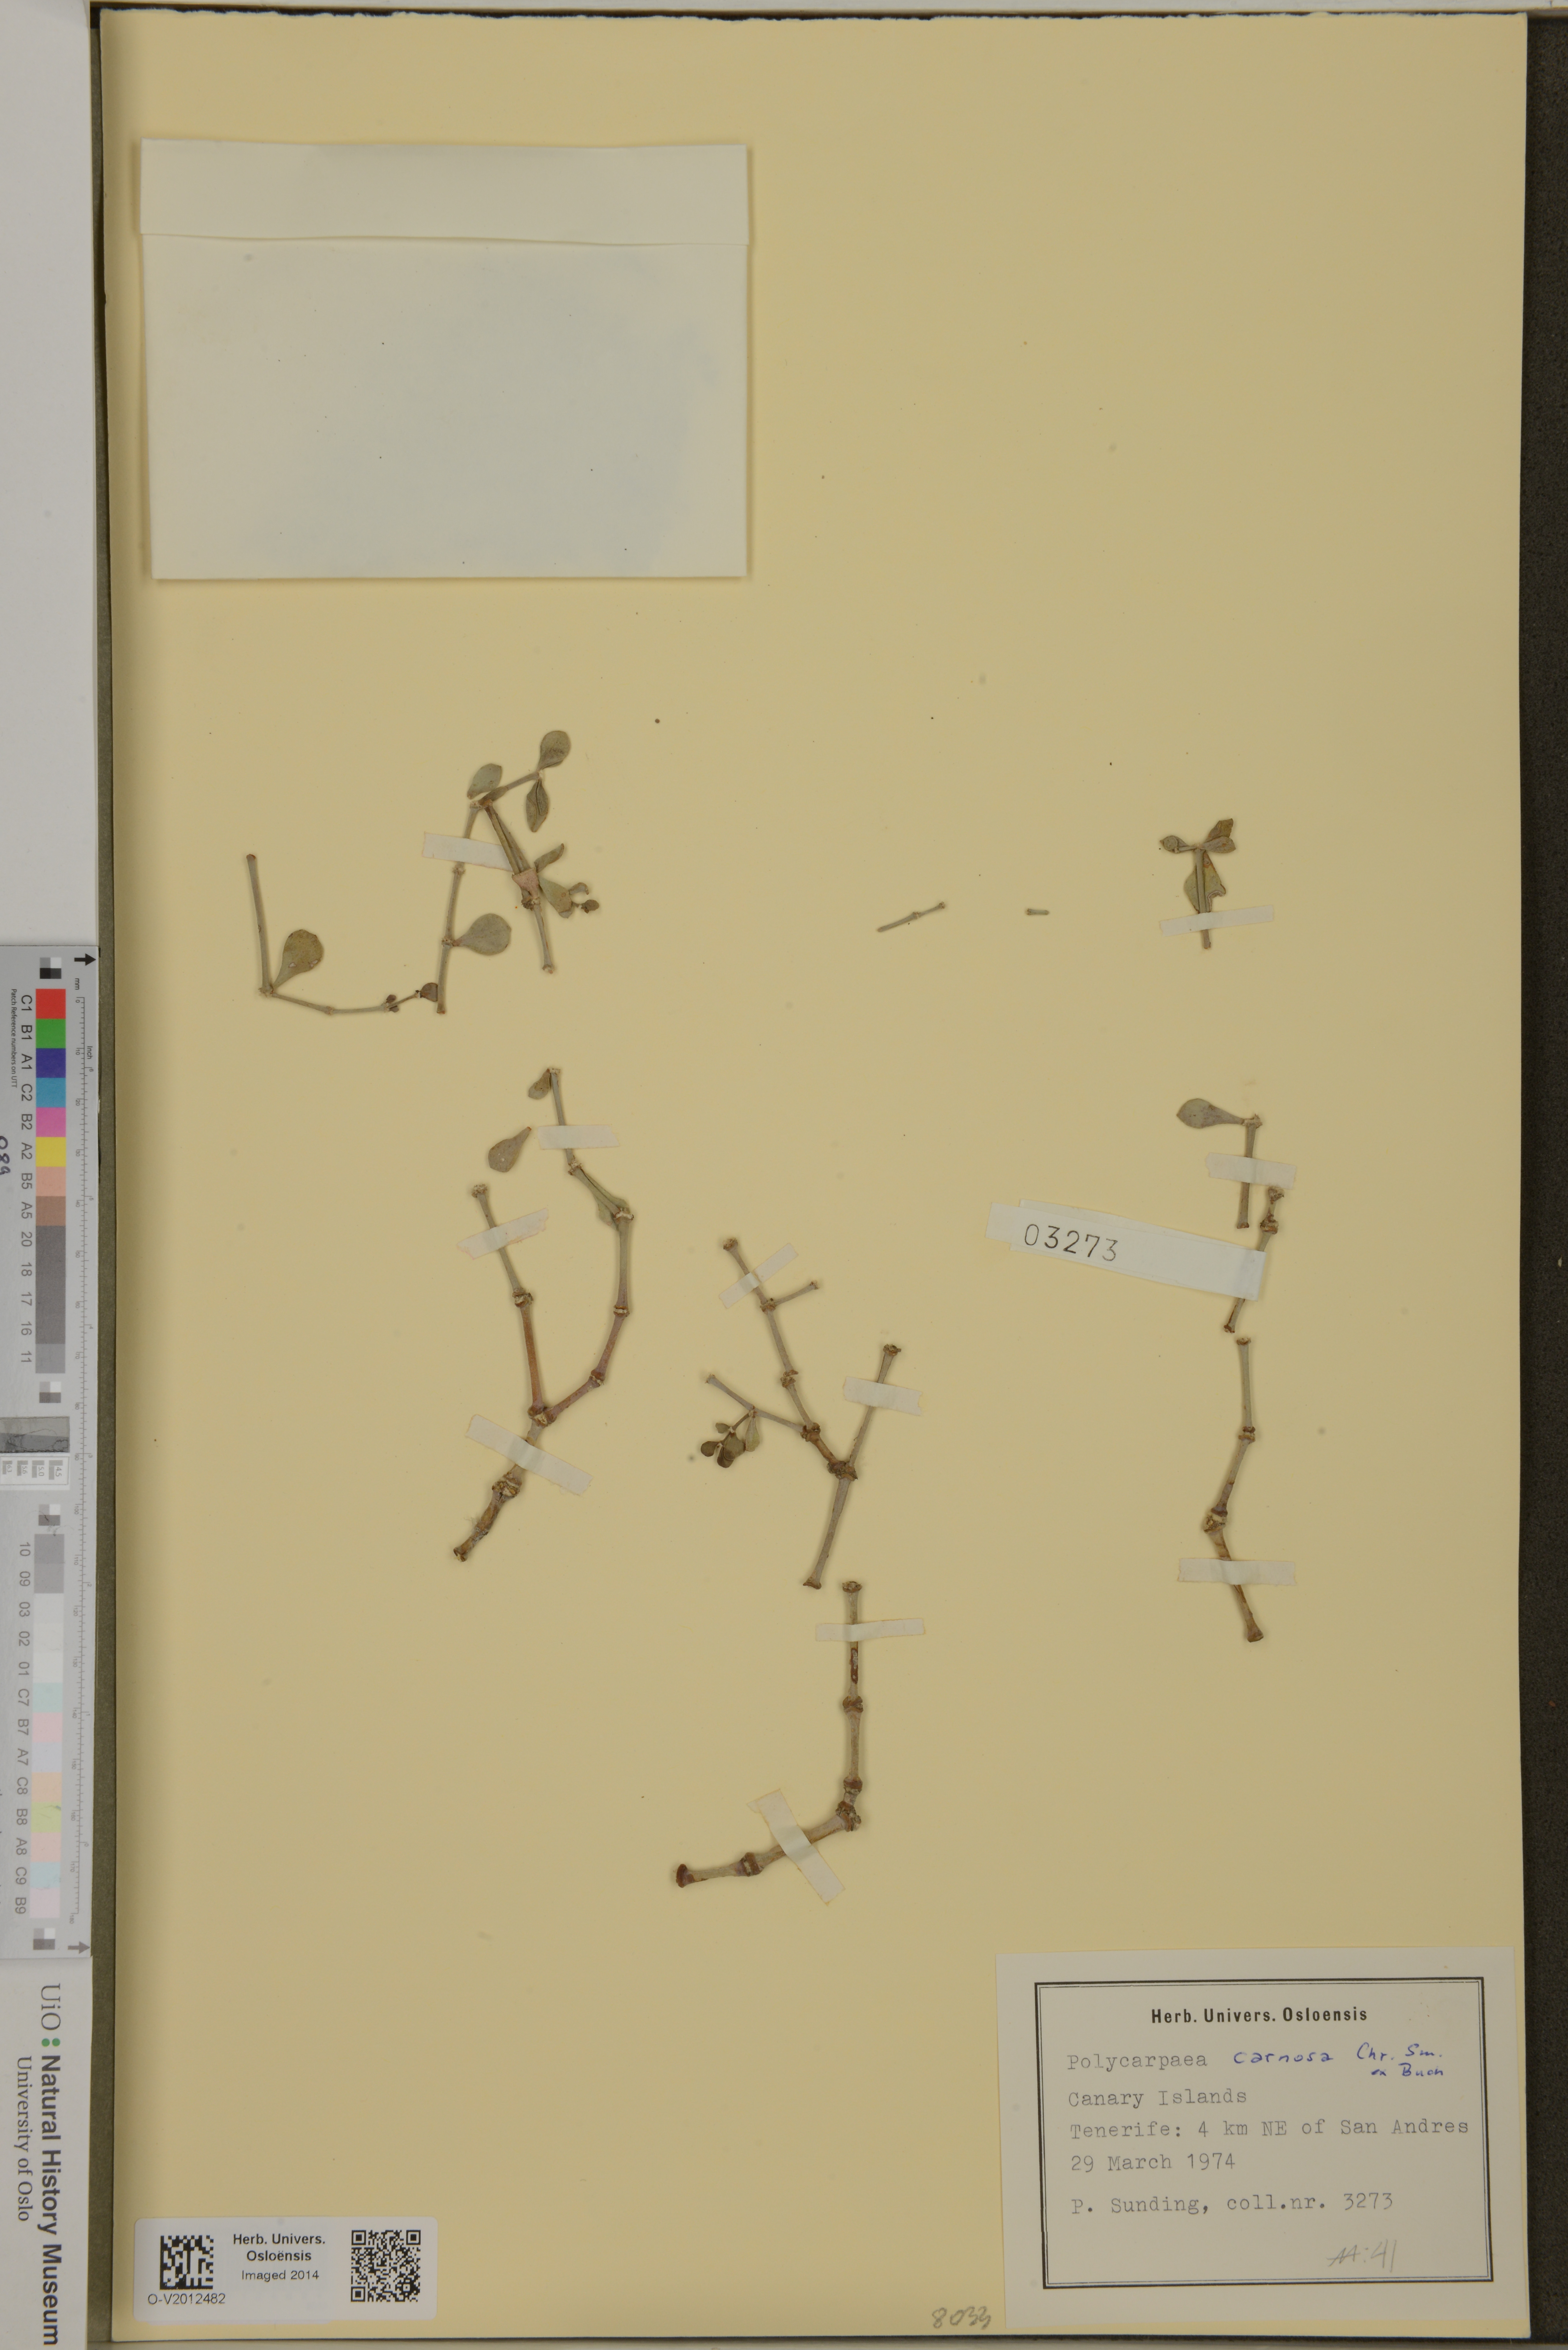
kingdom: Plantae
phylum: Tracheophyta
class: Magnoliopsida
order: Caryophyllales
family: Caryophyllaceae
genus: Polycarpaea
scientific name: Polycarpaea carnosa
